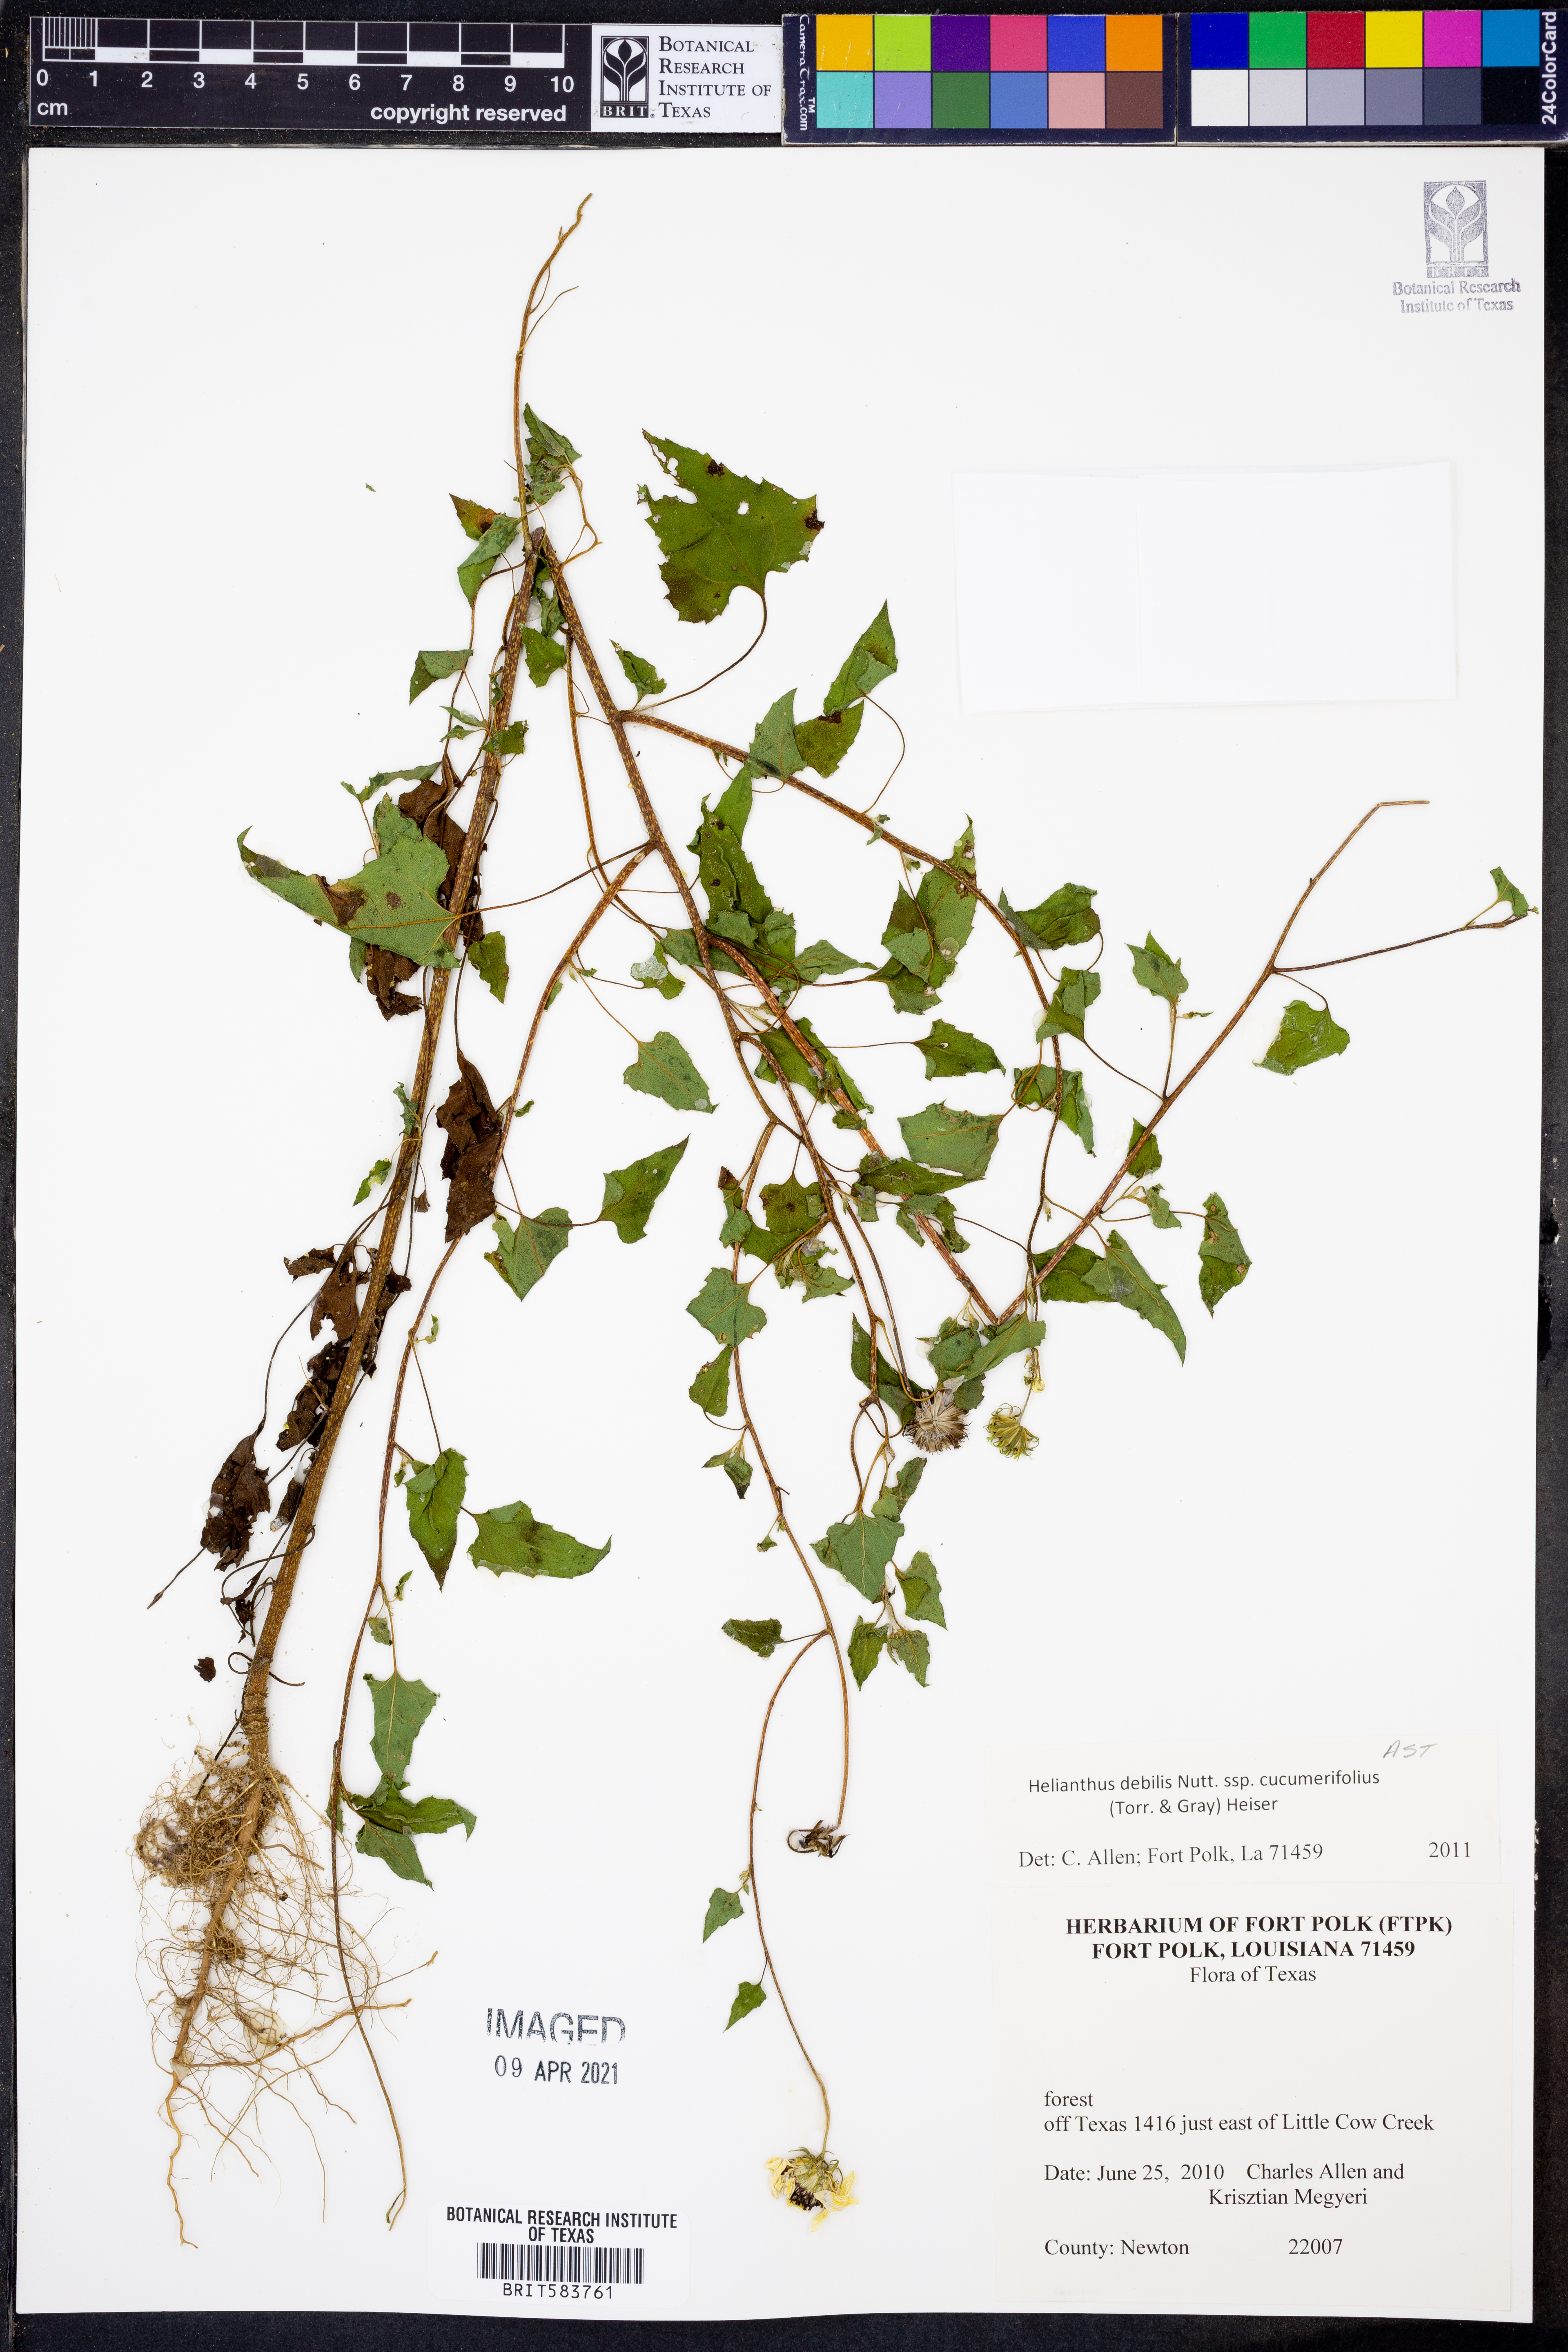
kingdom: Plantae
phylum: Tracheophyta
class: Magnoliopsida
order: Asterales
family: Asteraceae
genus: Helianthus
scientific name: Helianthus debilis
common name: Weak sunflower
